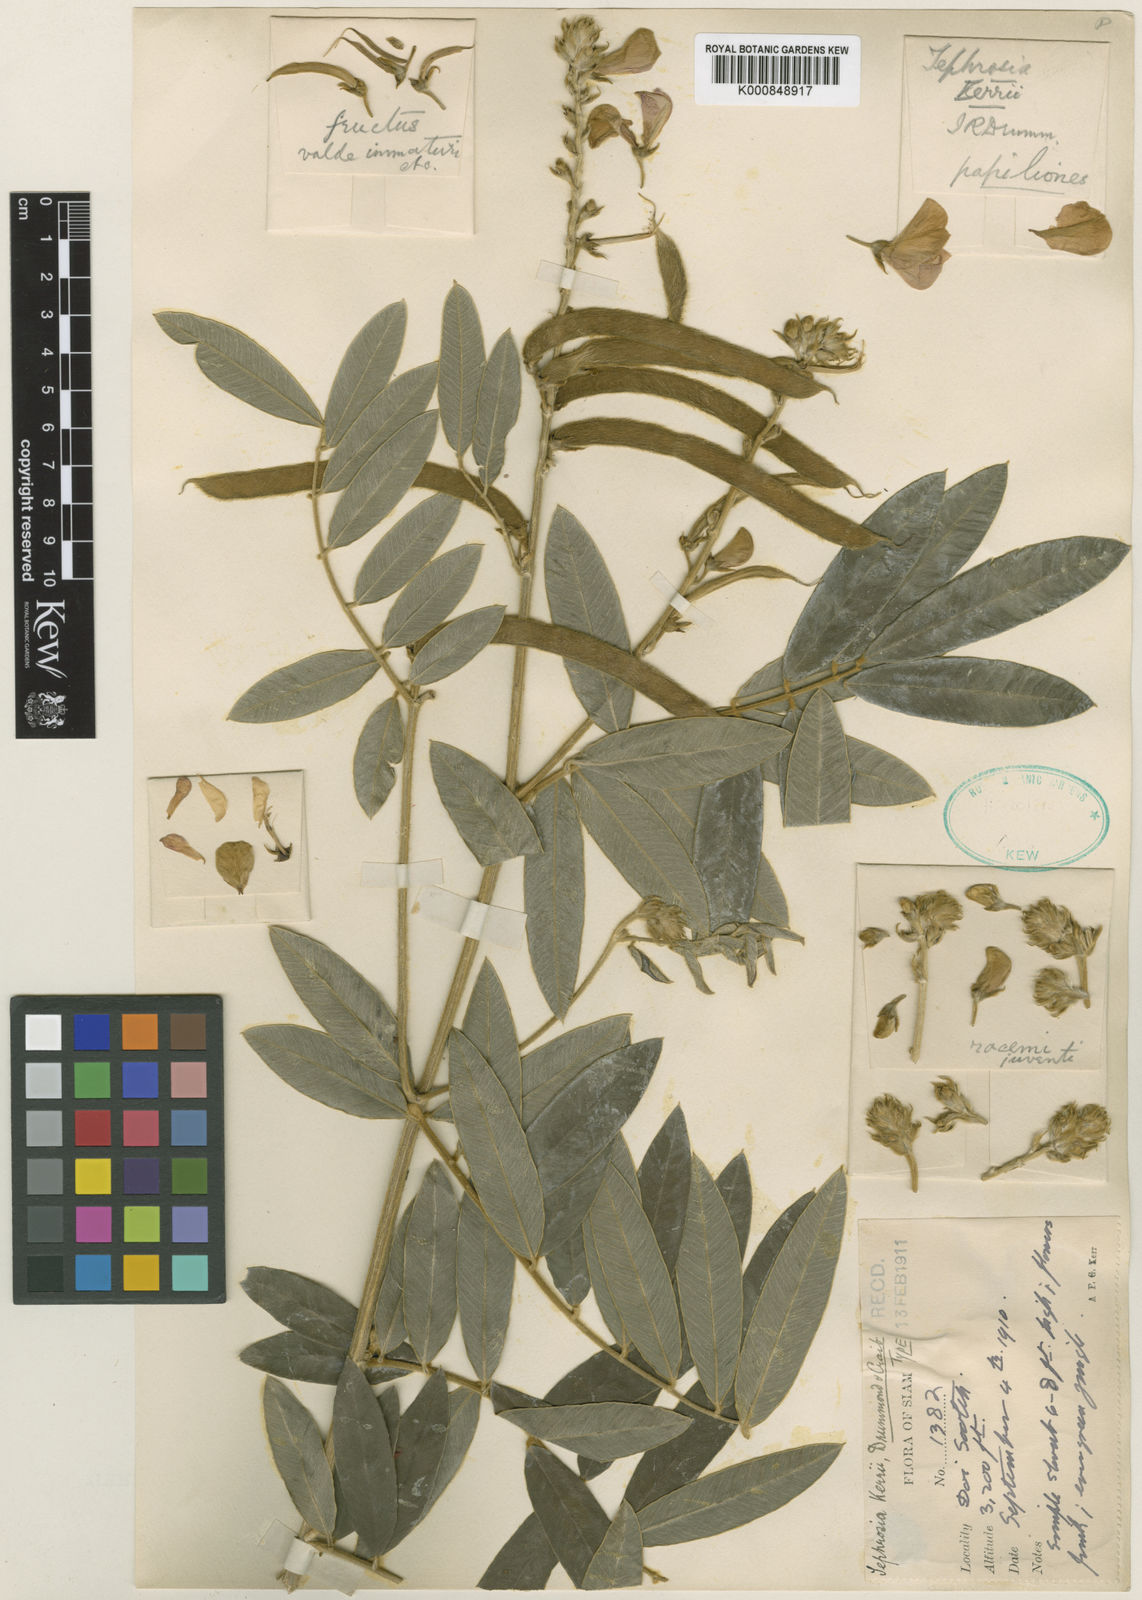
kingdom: Plantae
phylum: Tracheophyta
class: Magnoliopsida
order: Fabales
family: Fabaceae
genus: Tephrosia
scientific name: Tephrosia kerrii
